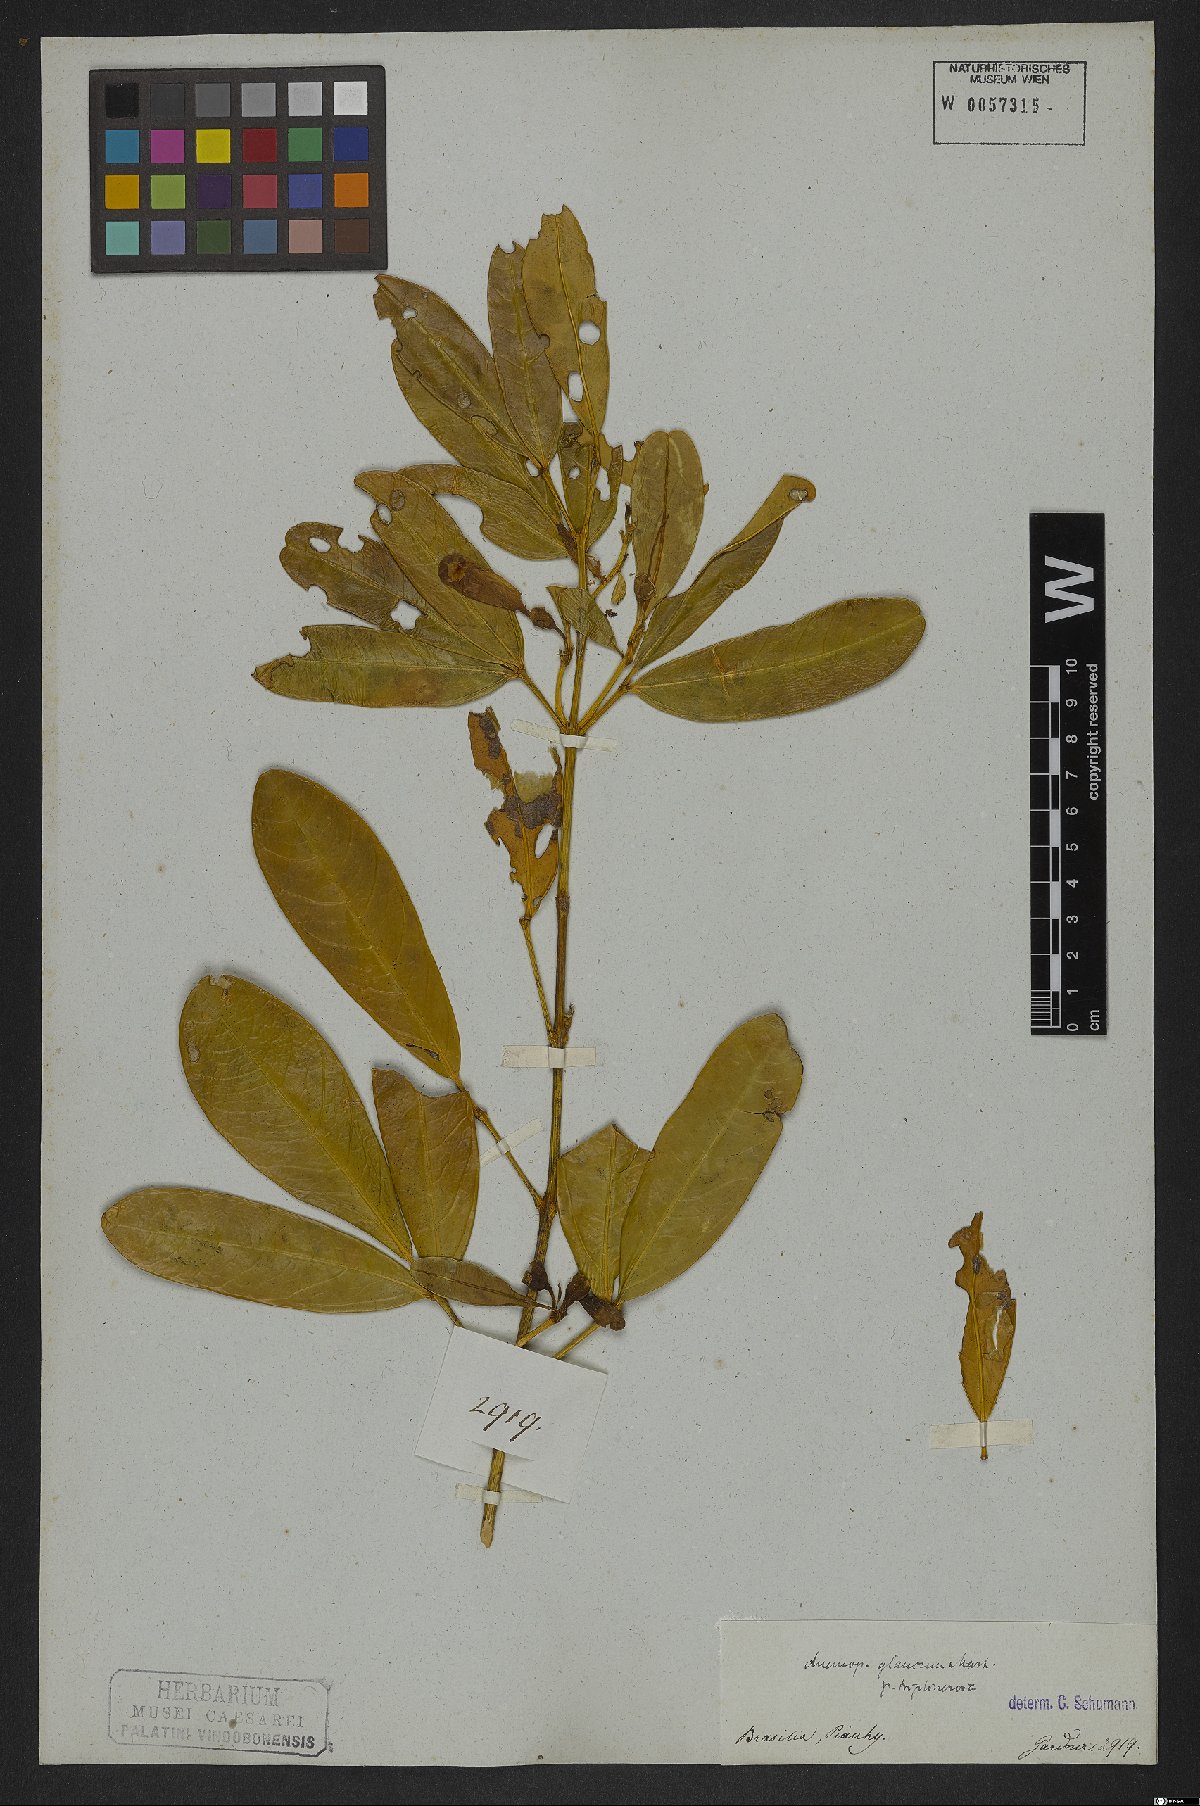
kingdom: Plantae
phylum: Tracheophyta
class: Magnoliopsida
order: Lamiales
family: Bignoniaceae
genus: Anemopaegma
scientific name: Anemopaegma glaucum
